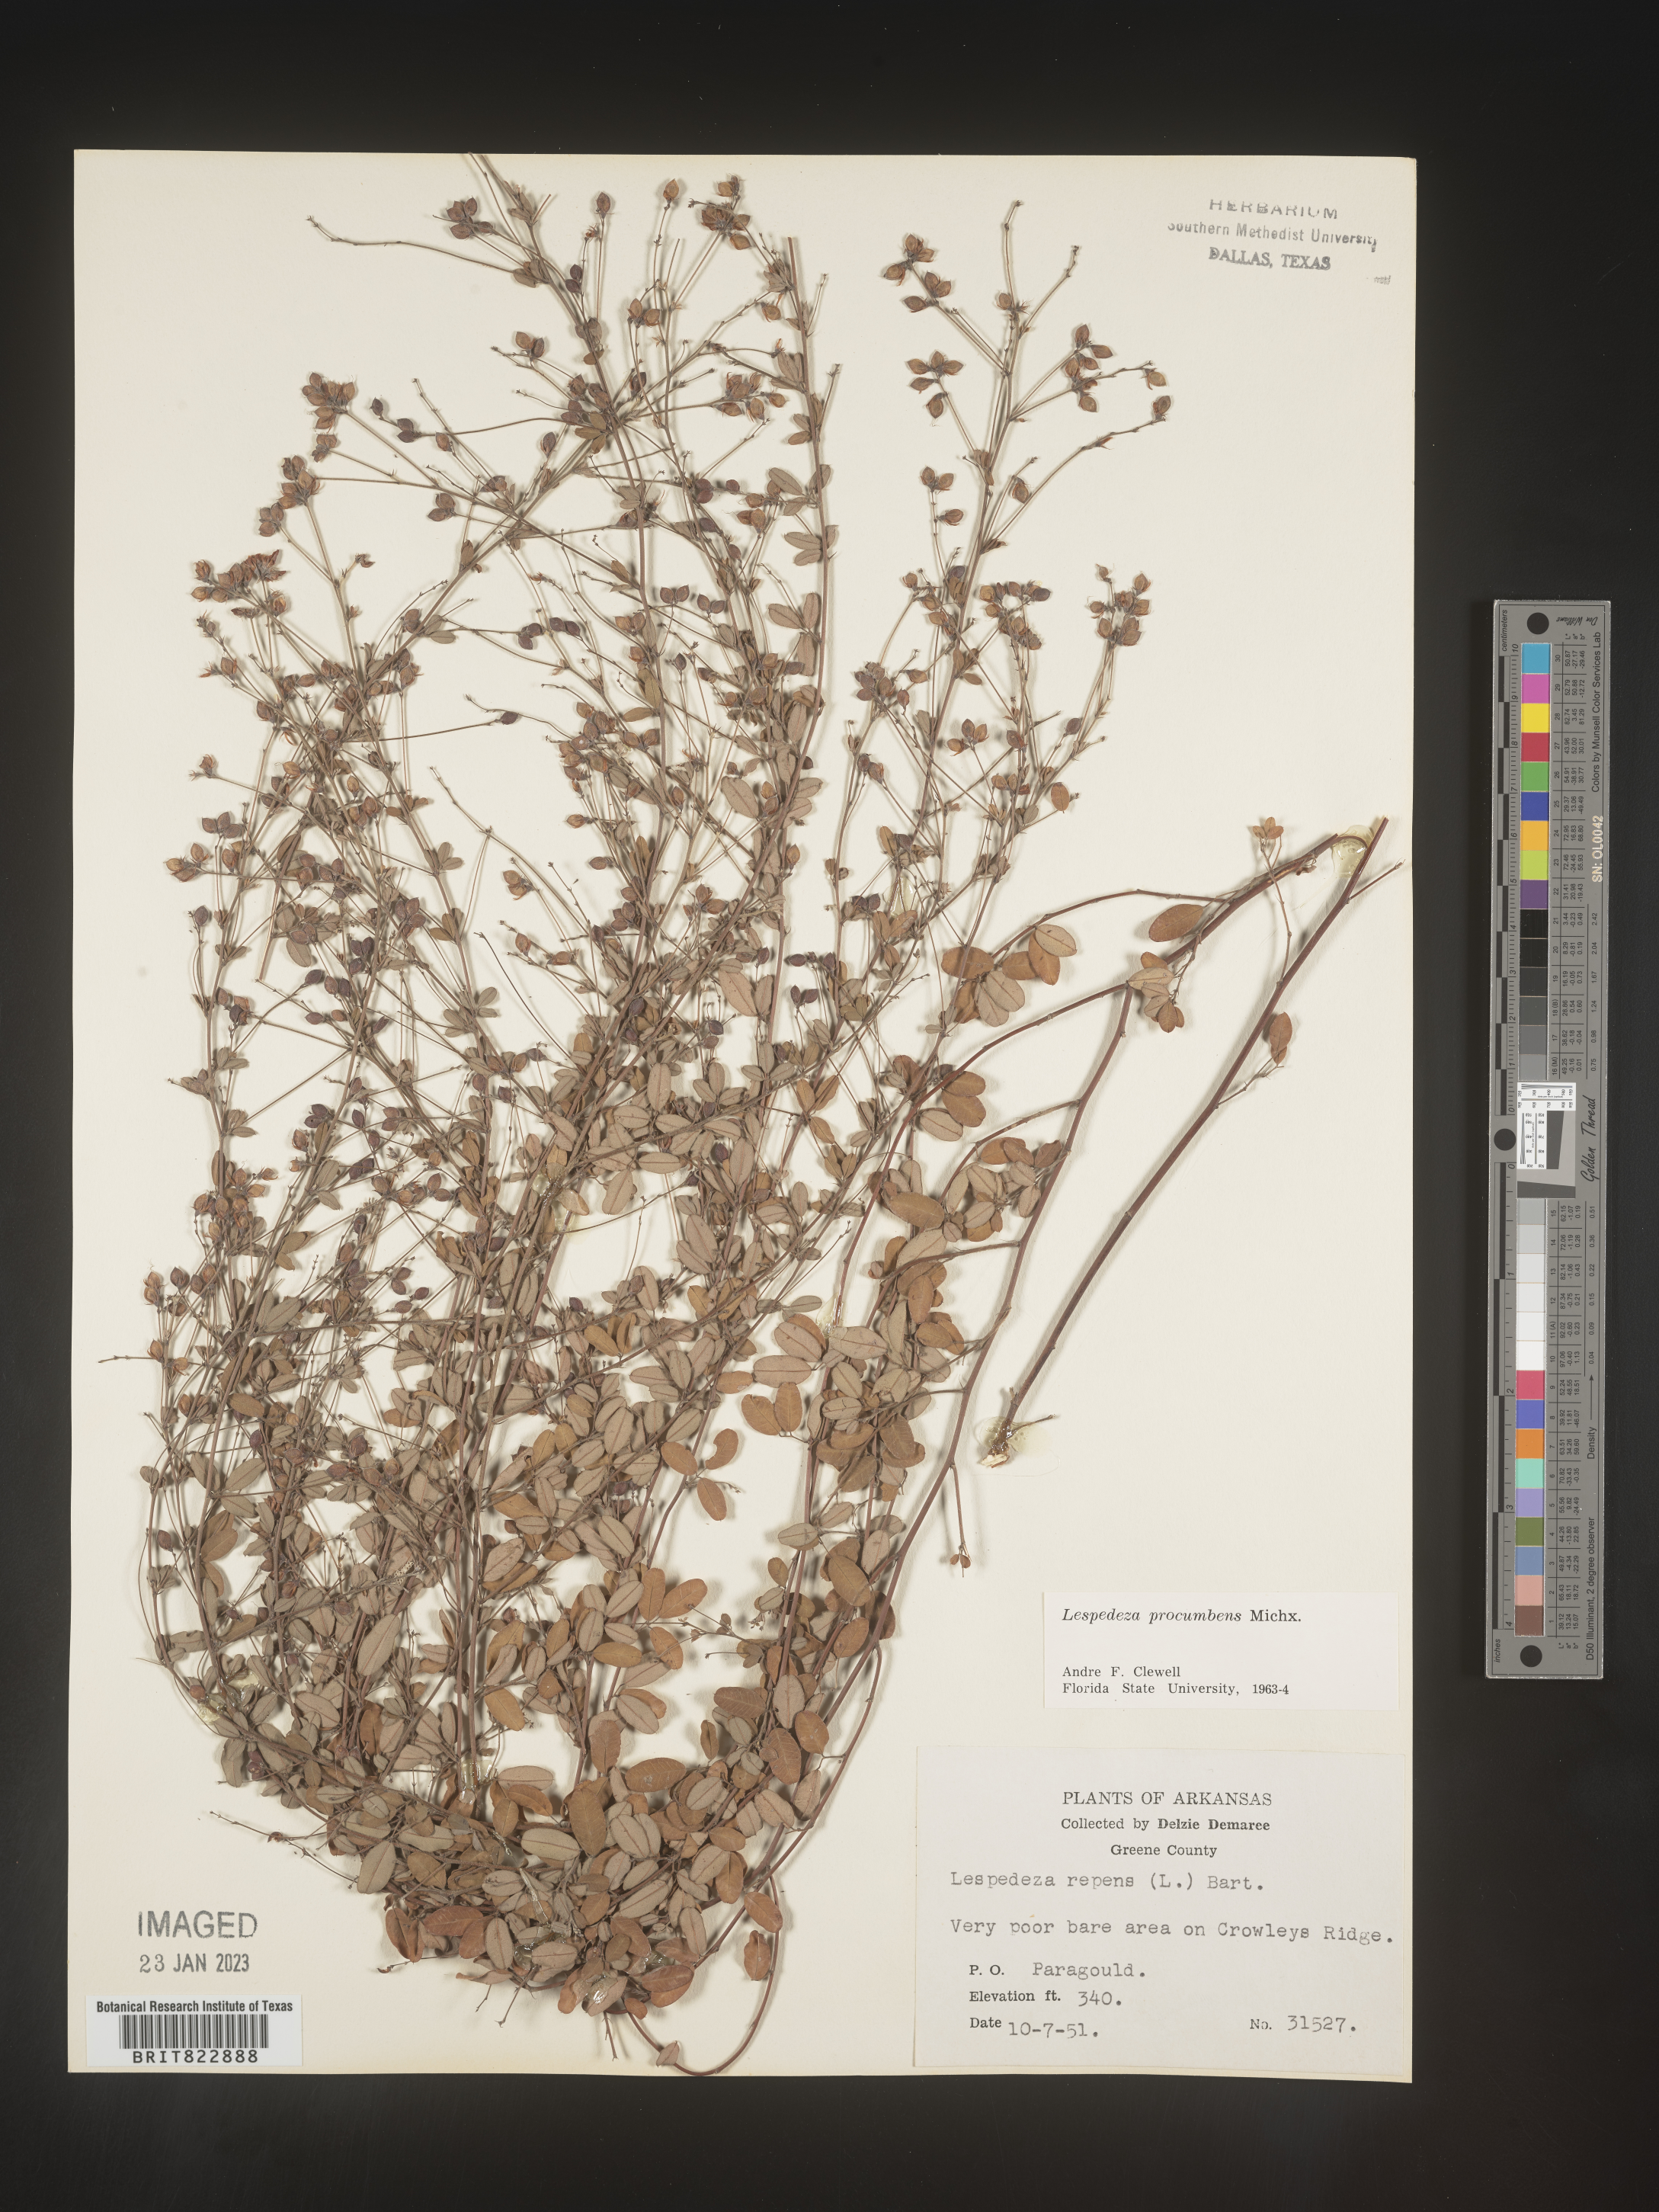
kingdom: Plantae
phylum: Tracheophyta
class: Magnoliopsida
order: Fabales
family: Fabaceae
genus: Lespedeza
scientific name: Lespedeza procumbens
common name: Downy trailing bush-clover
